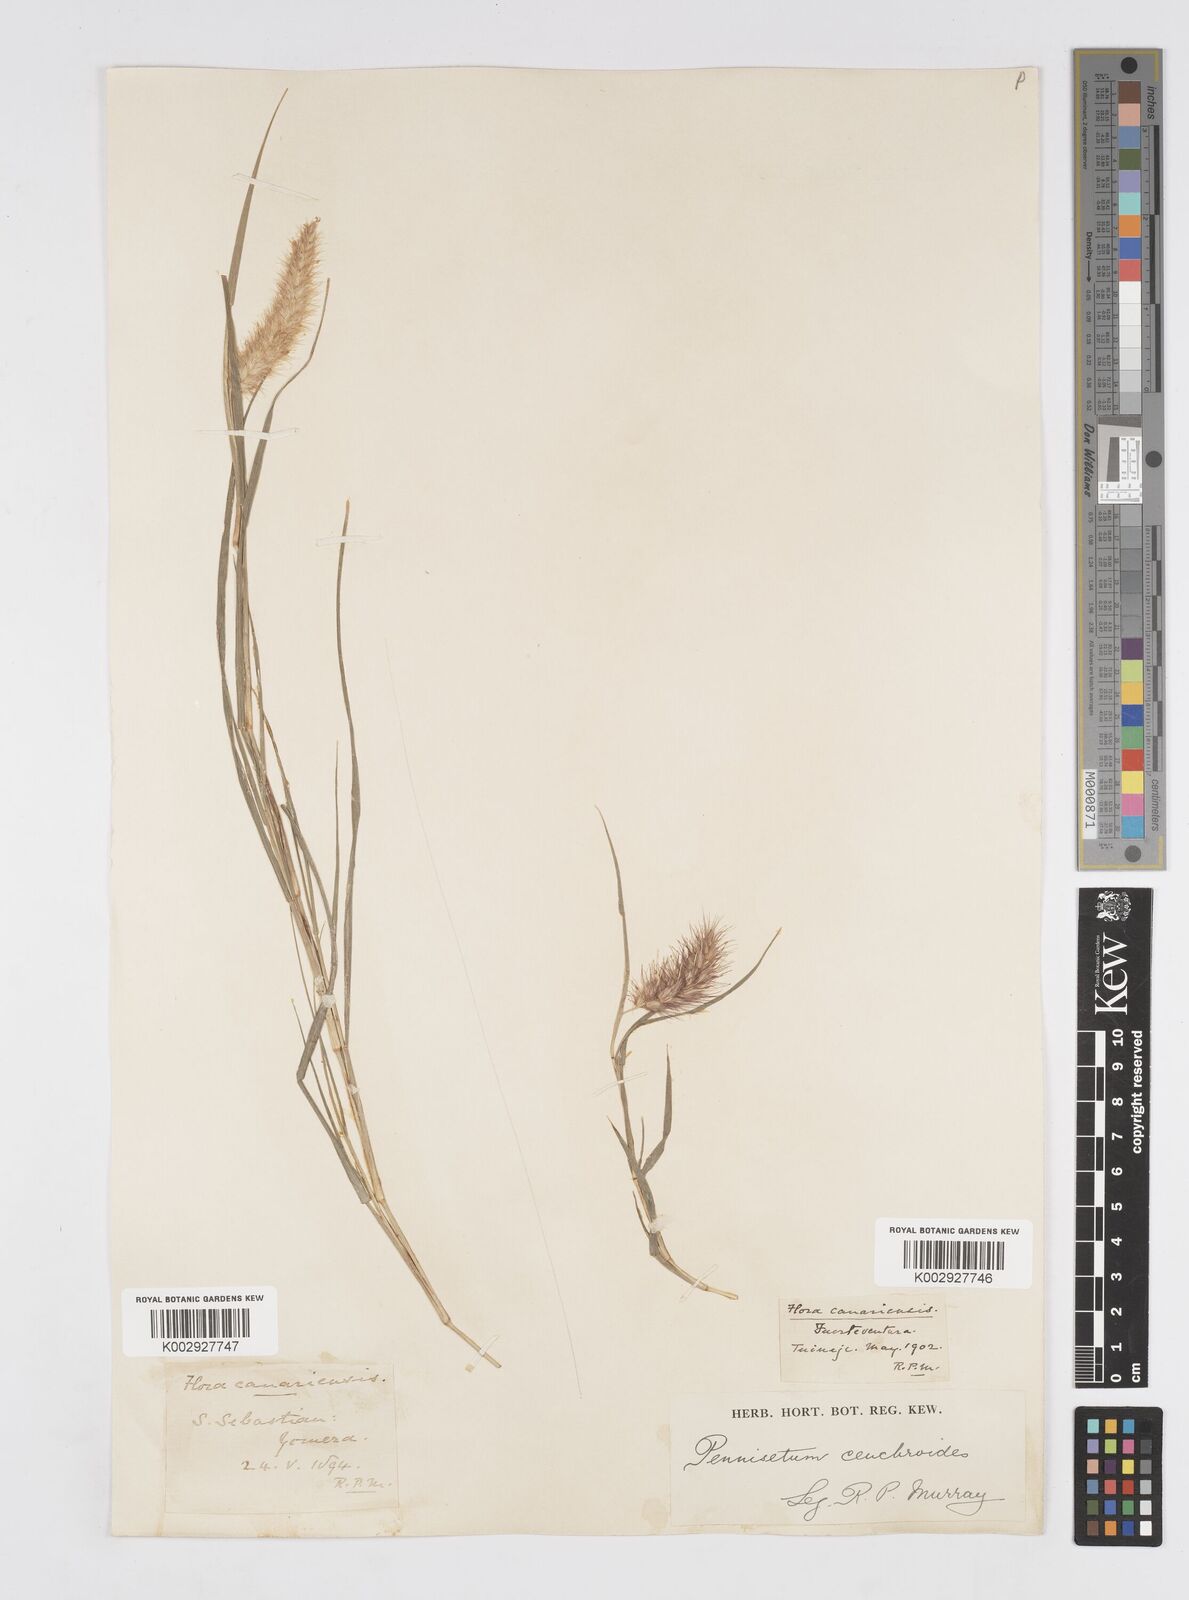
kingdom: Plantae
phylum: Tracheophyta
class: Liliopsida
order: Poales
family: Poaceae
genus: Cenchrus
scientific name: Cenchrus
